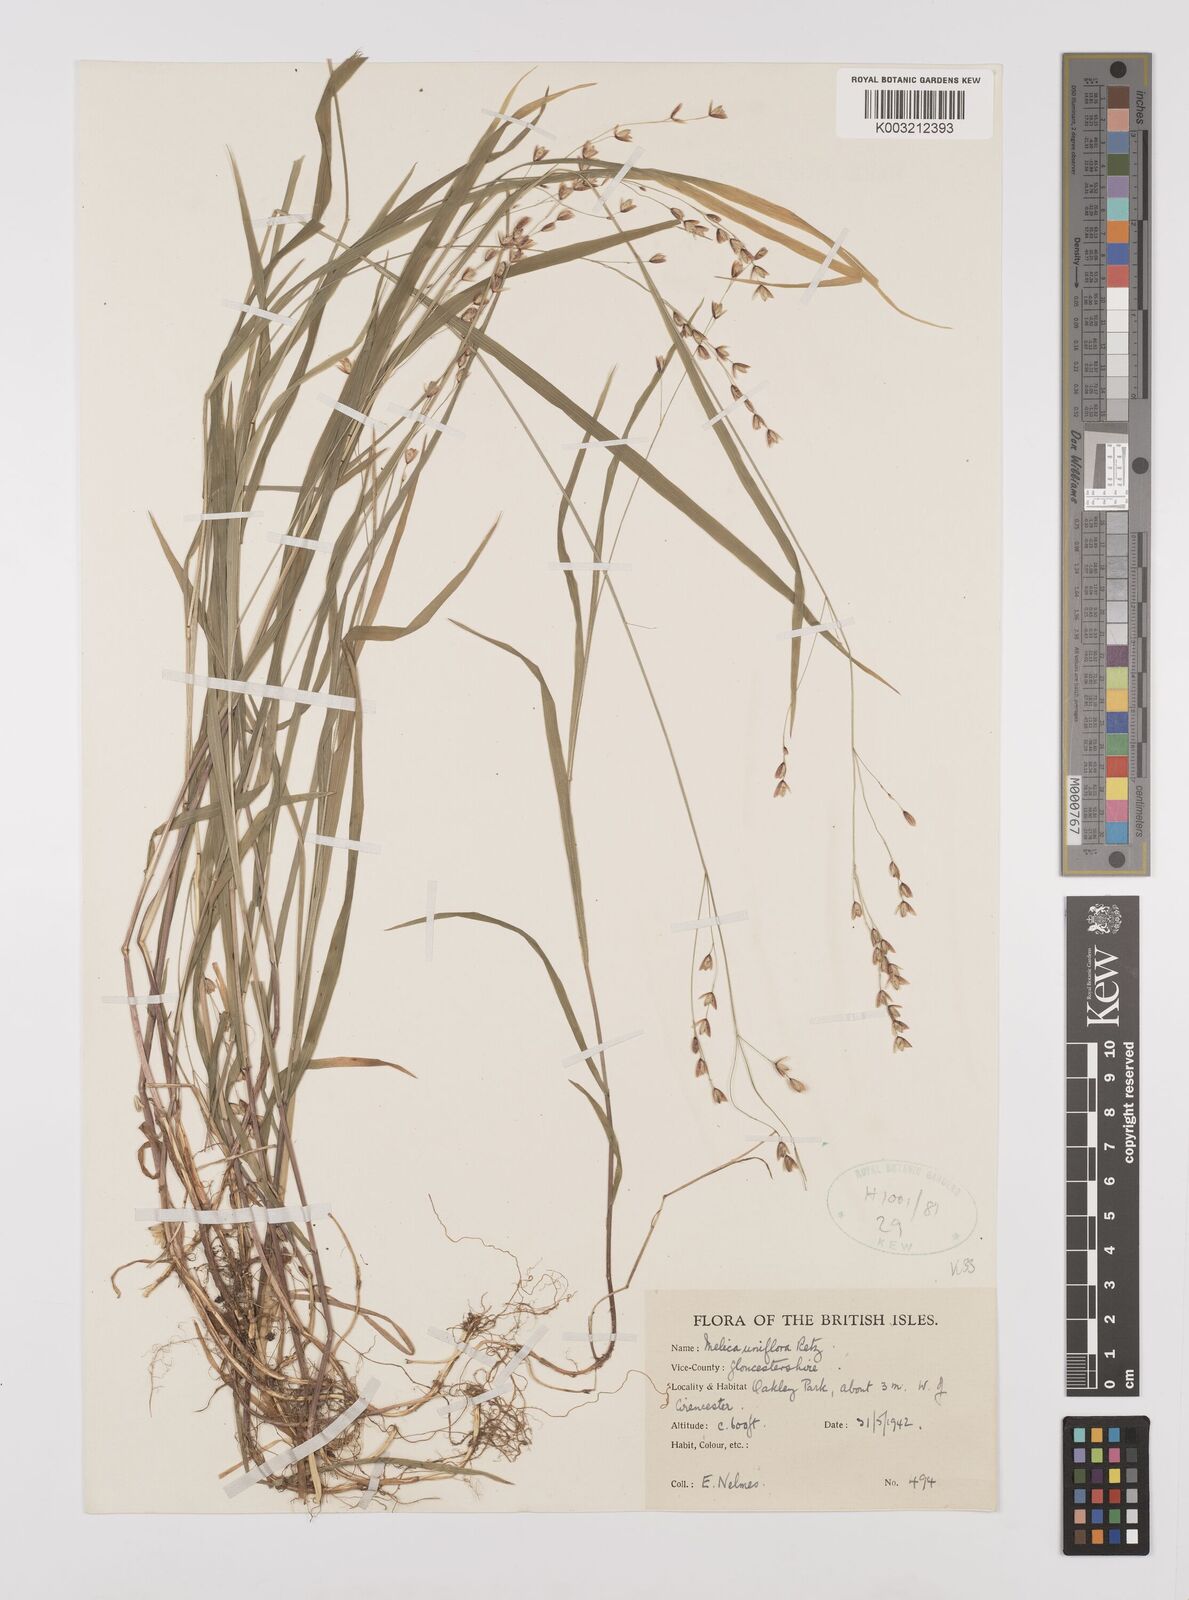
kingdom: Plantae
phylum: Tracheophyta
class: Liliopsida
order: Poales
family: Poaceae
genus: Melica
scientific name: Melica uniflora
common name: Wood melick
